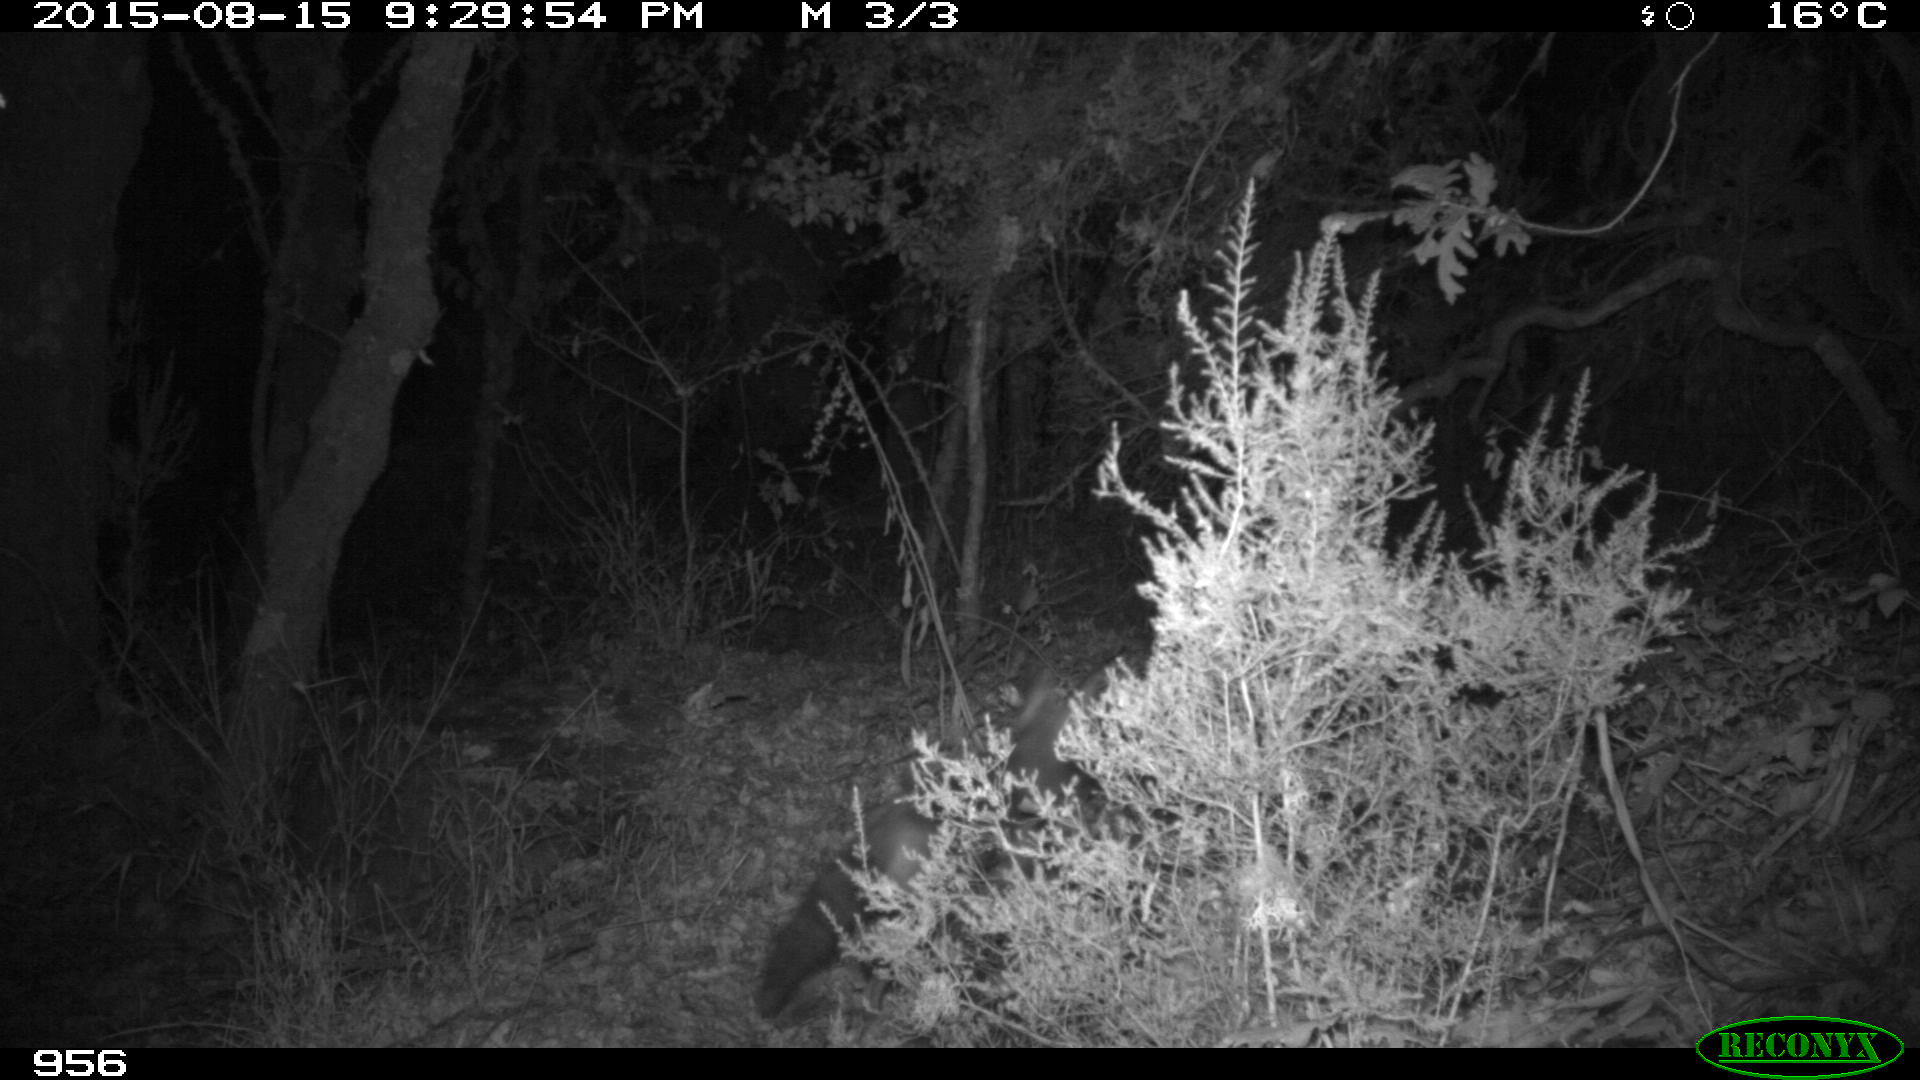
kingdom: Animalia
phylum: Chordata
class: Mammalia
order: Carnivora
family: Canidae
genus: Vulpes
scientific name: Vulpes vulpes
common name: Red fox
